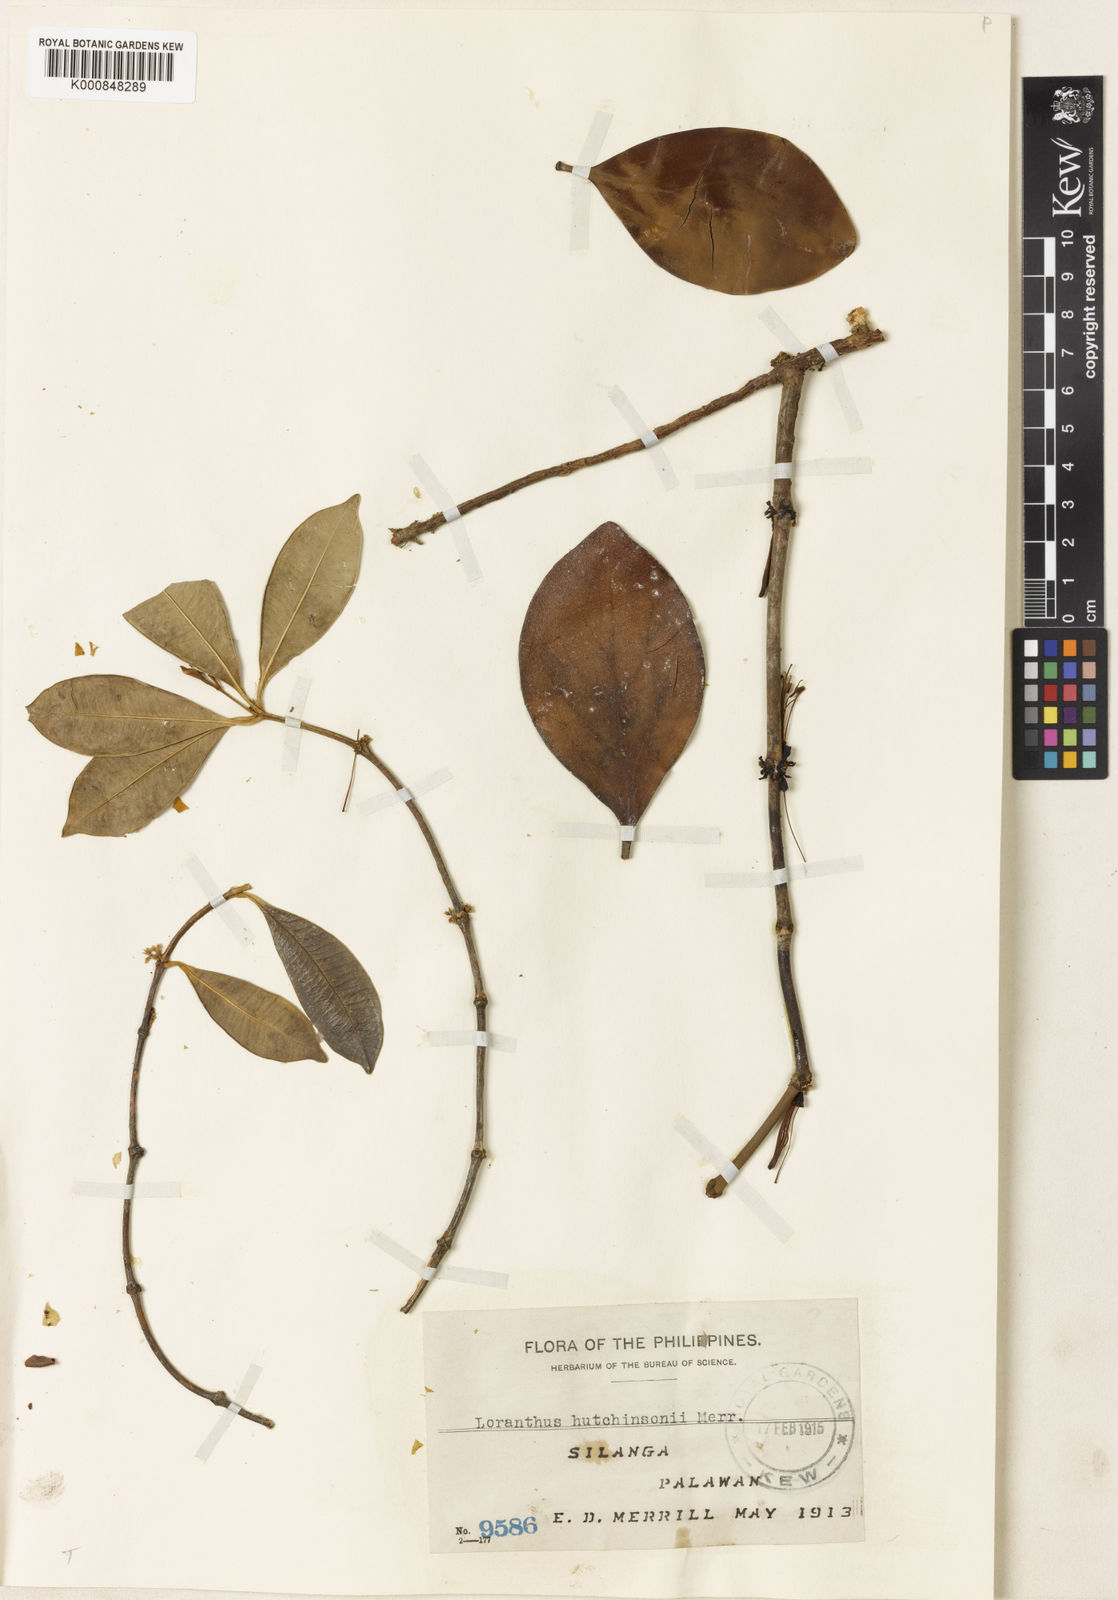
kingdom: Plantae
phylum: Tracheophyta
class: Magnoliopsida
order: Santalales
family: Loranthaceae
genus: Amyema
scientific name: Amyema beccarii
